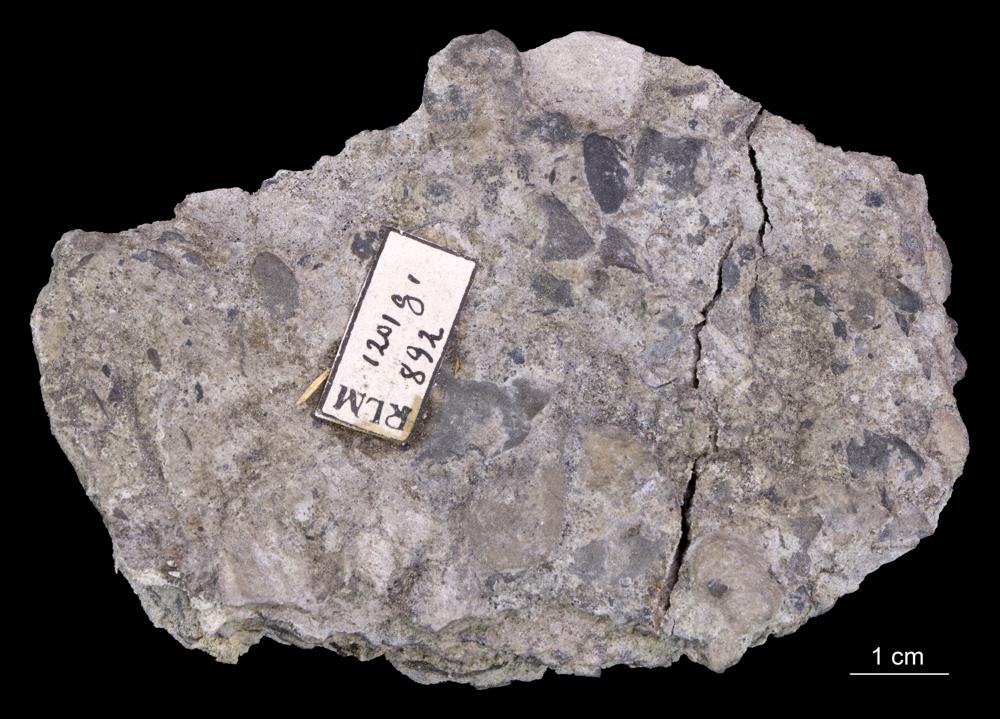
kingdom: Animalia
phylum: Brachiopoda
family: Paterinidae
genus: Mickwitzia
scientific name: Mickwitzia
